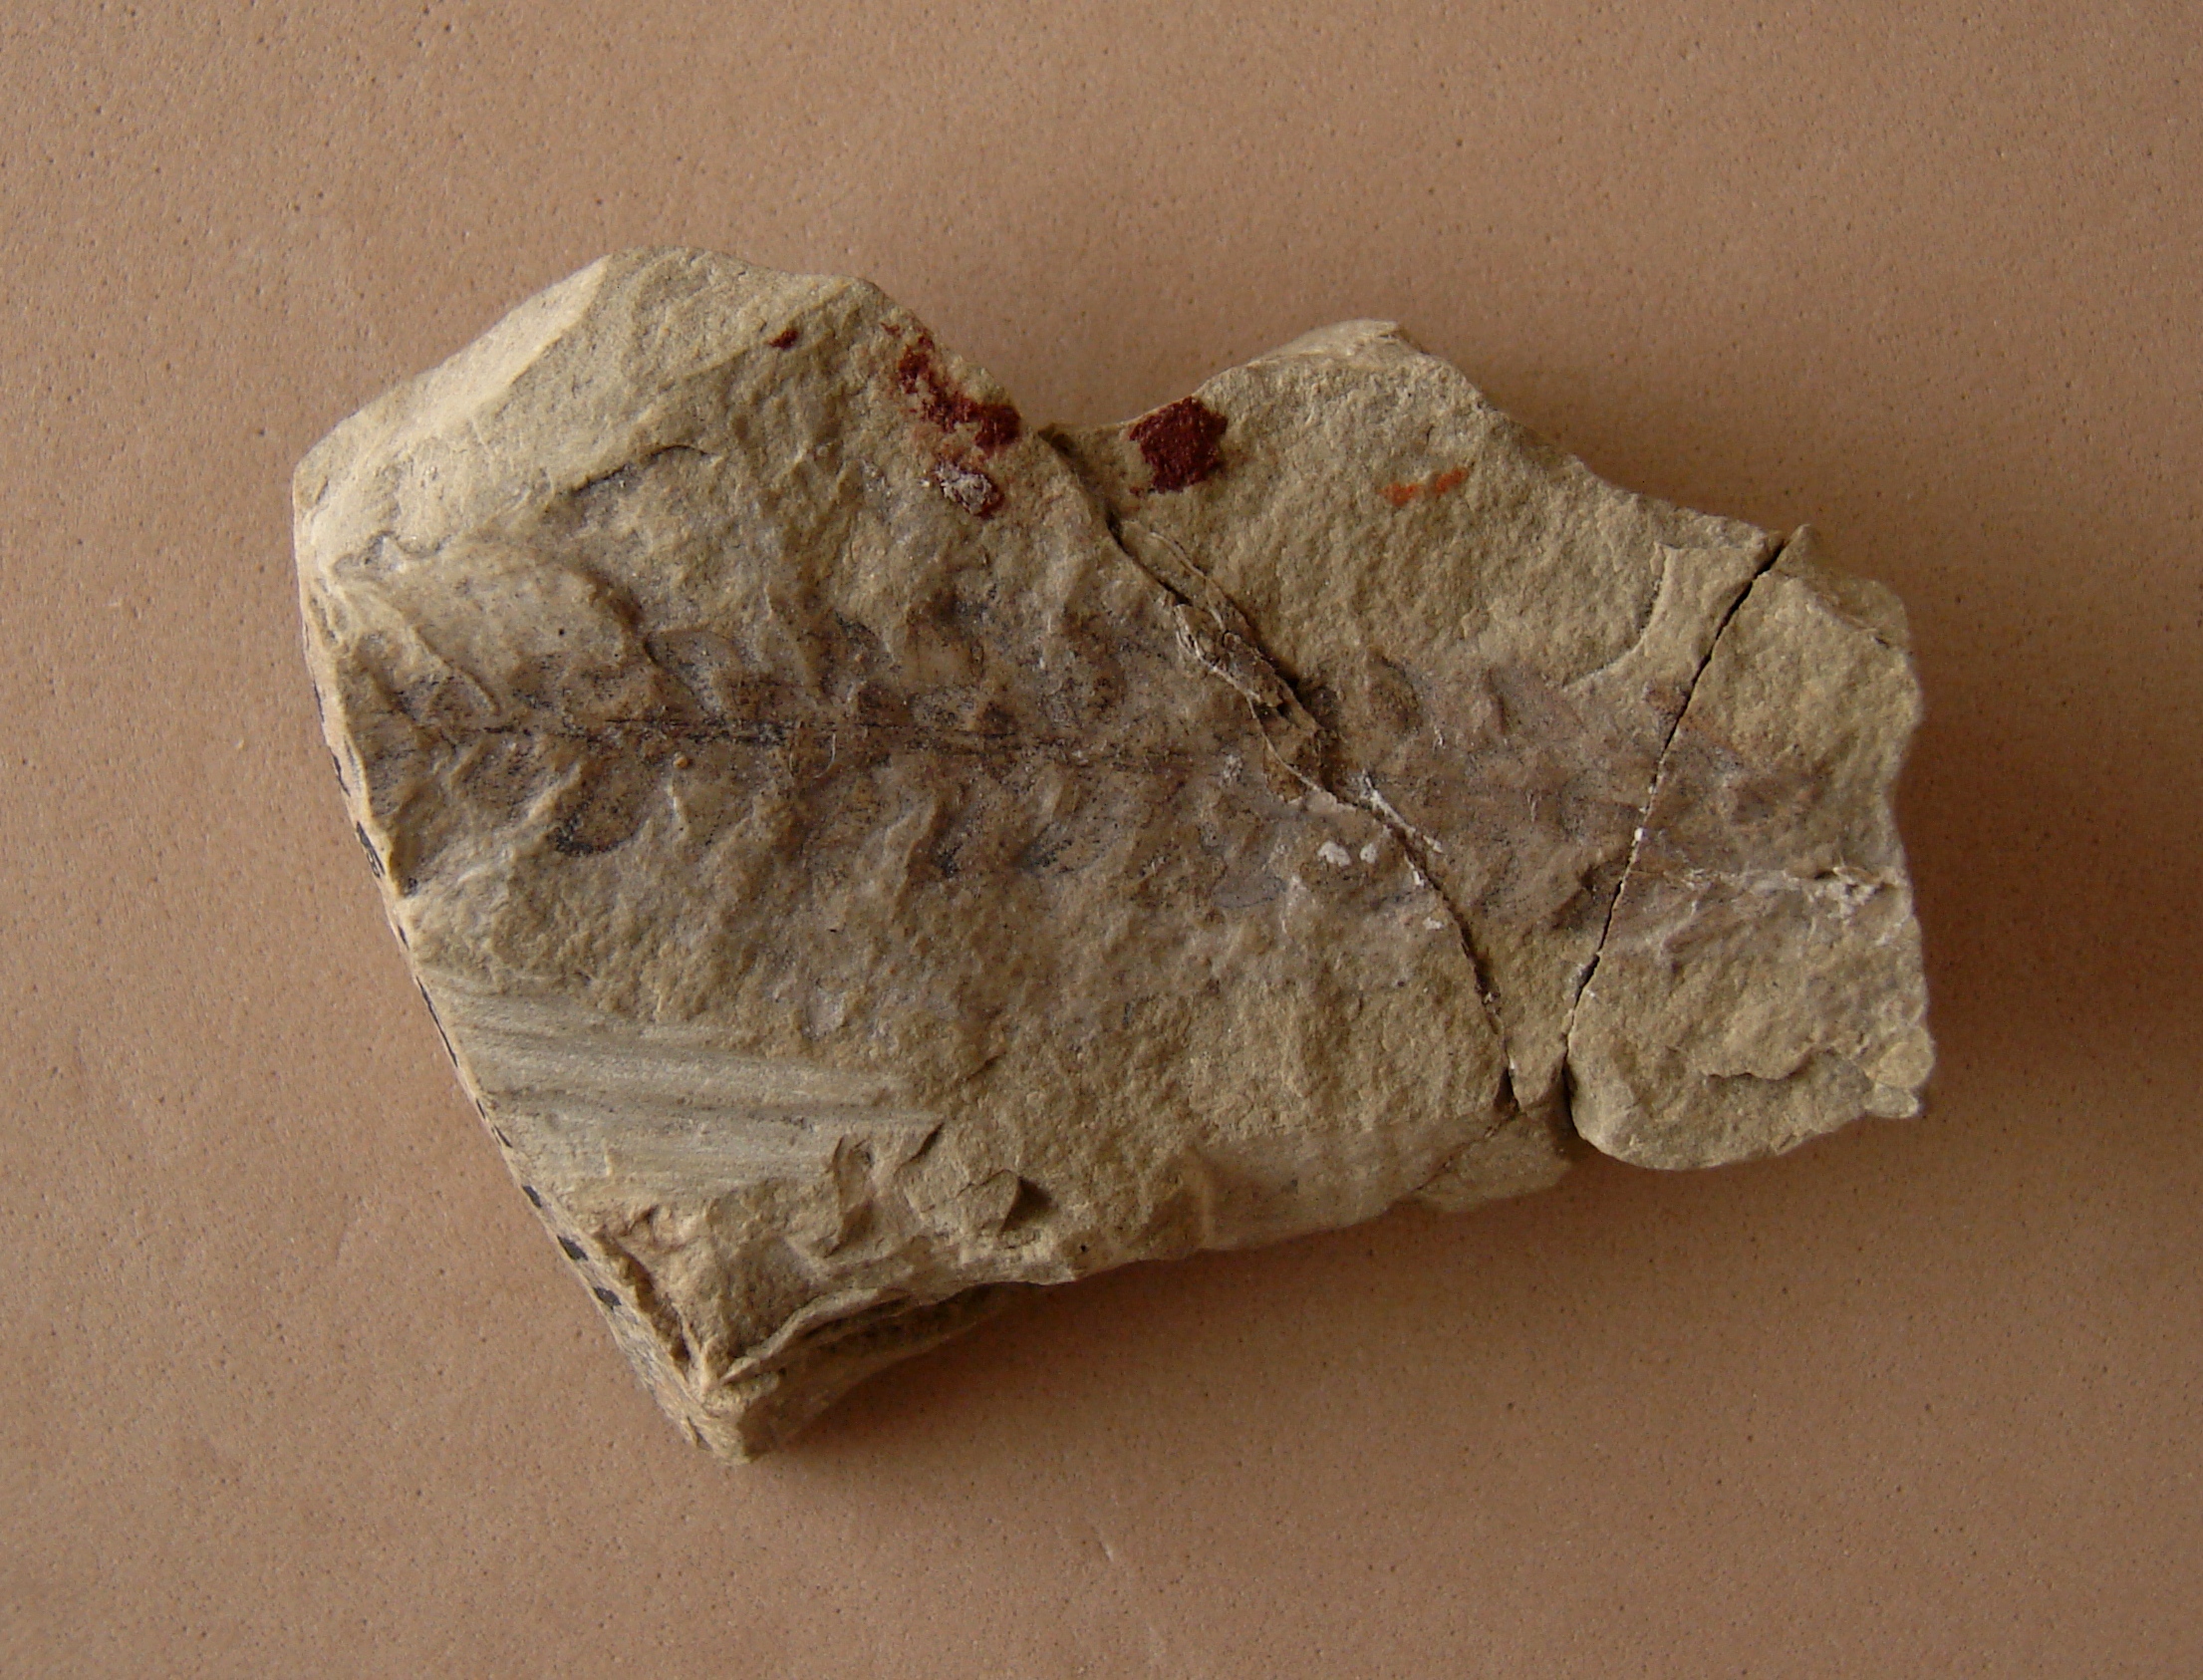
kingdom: Plantae
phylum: Tracheophyta
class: Pinopsida
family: Voltziaceae
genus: Voltzia
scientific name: Voltzia heterophylla
